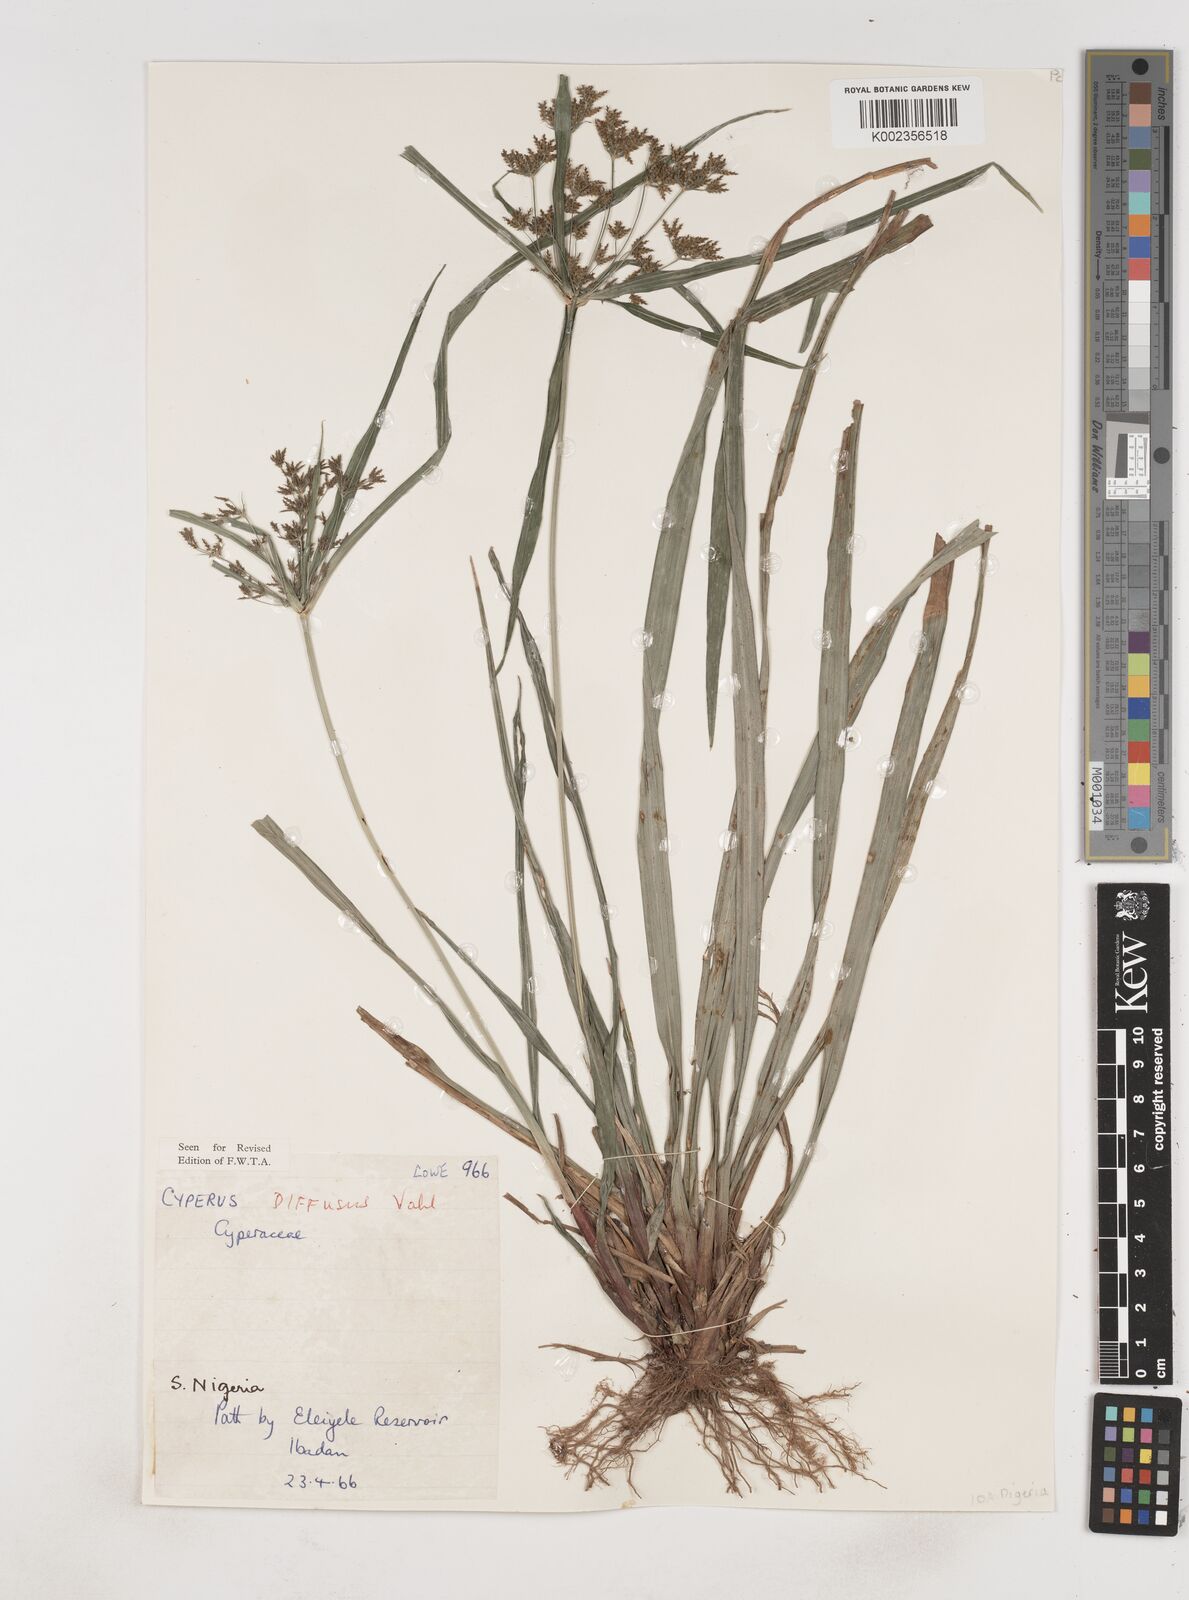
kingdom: Plantae
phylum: Tracheophyta
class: Liliopsida
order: Poales
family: Cyperaceae
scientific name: Cyperaceae
